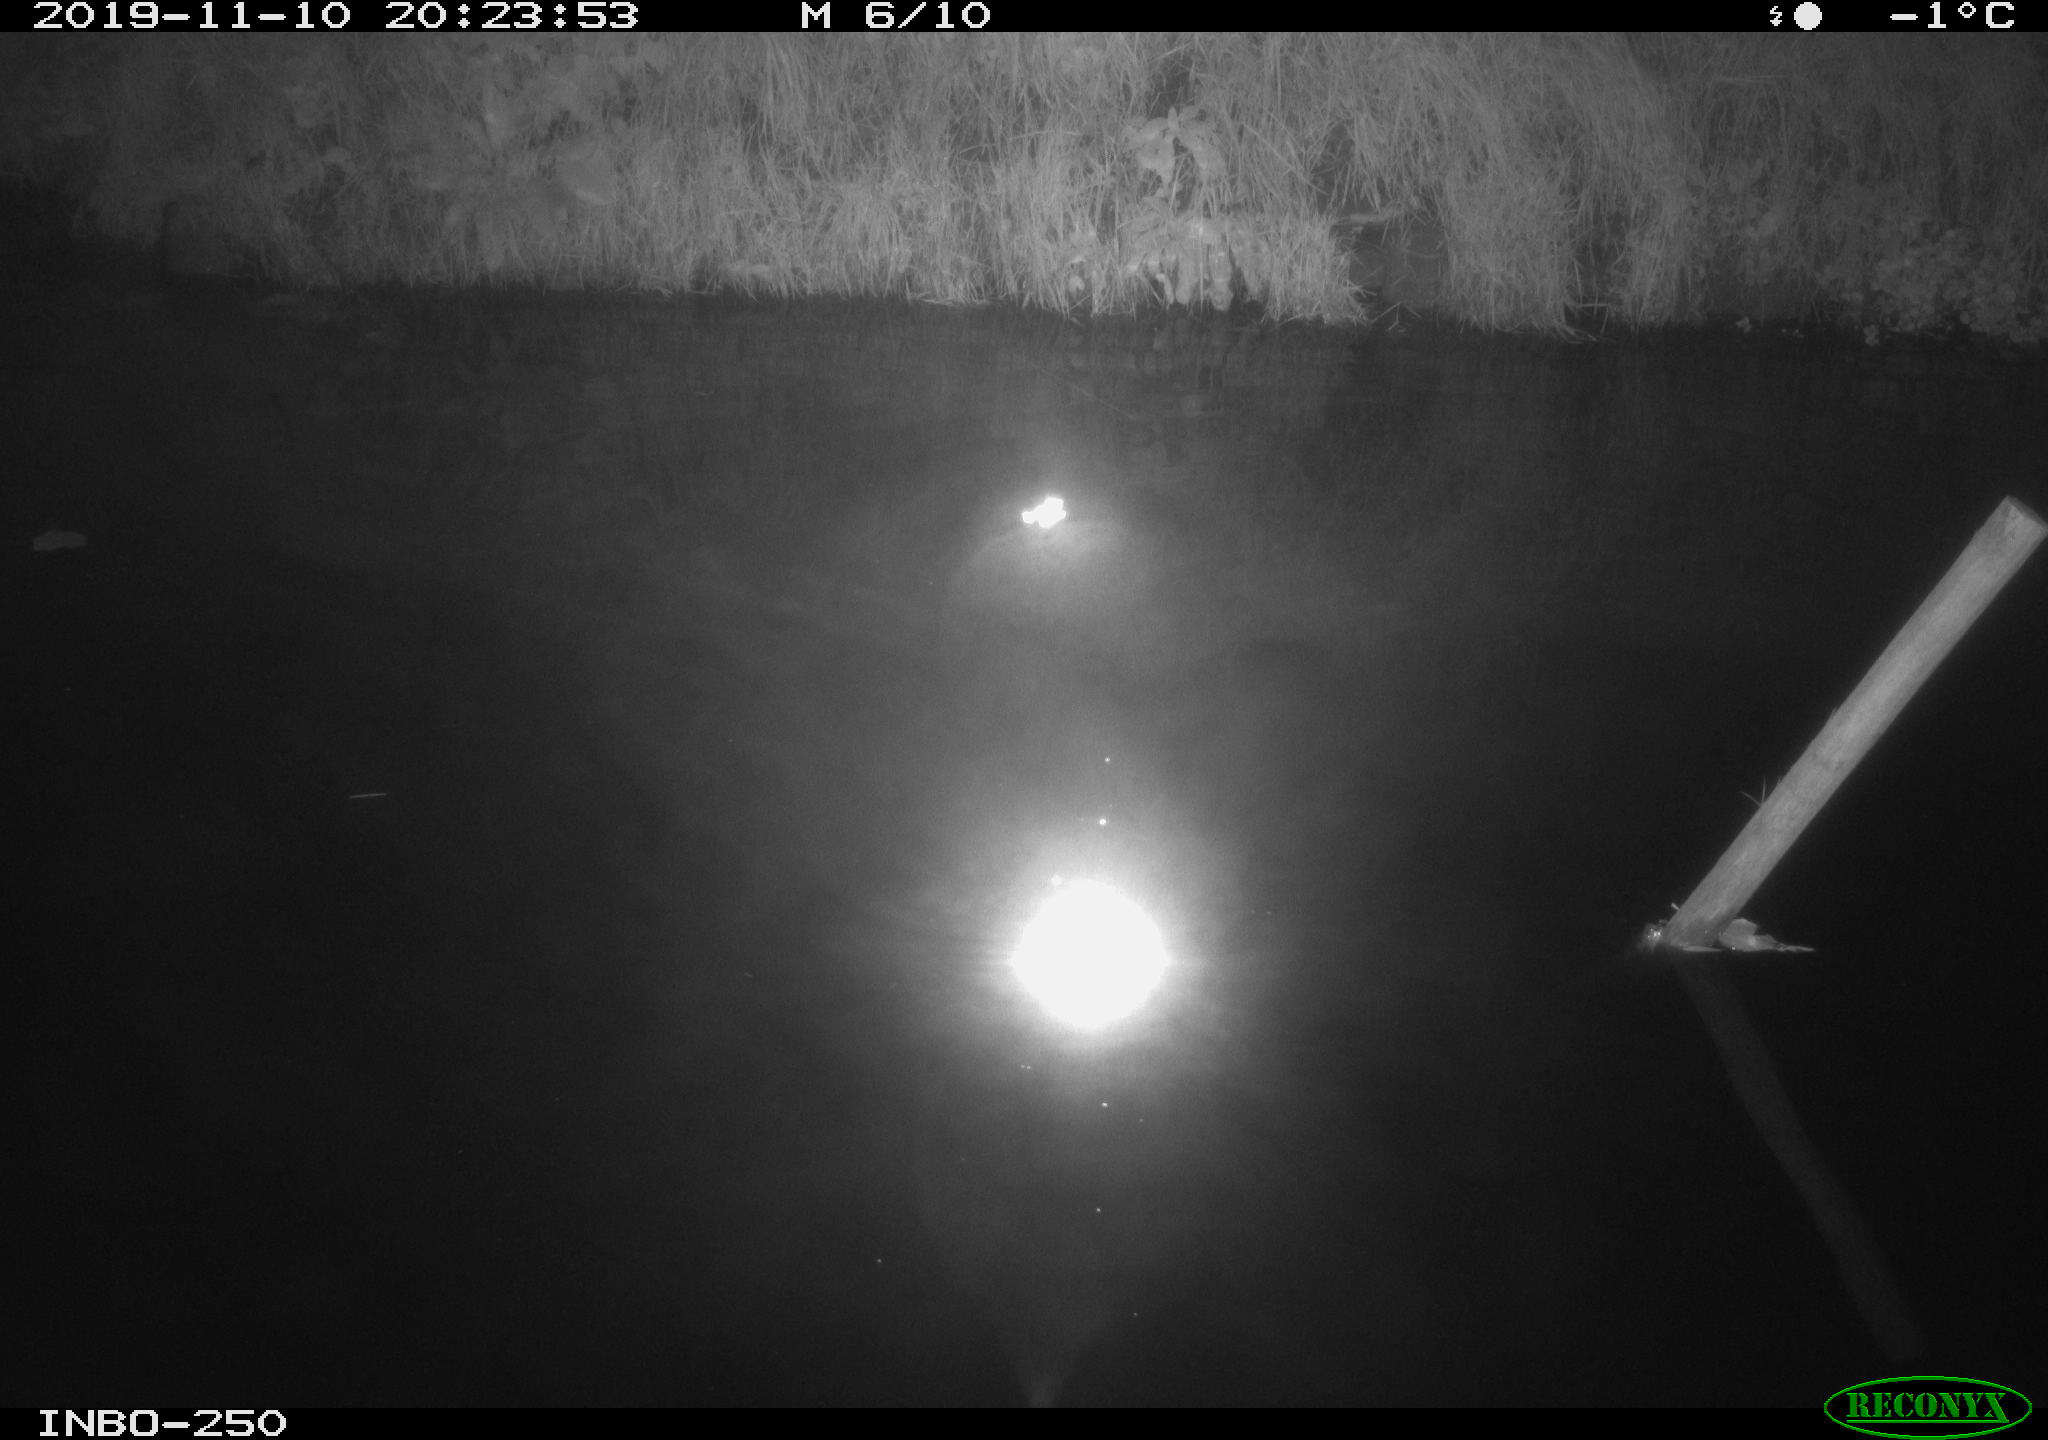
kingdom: Animalia
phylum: Chordata
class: Aves
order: Anseriformes
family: Anatidae
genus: Anas
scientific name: Anas platyrhynchos
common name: Mallard
